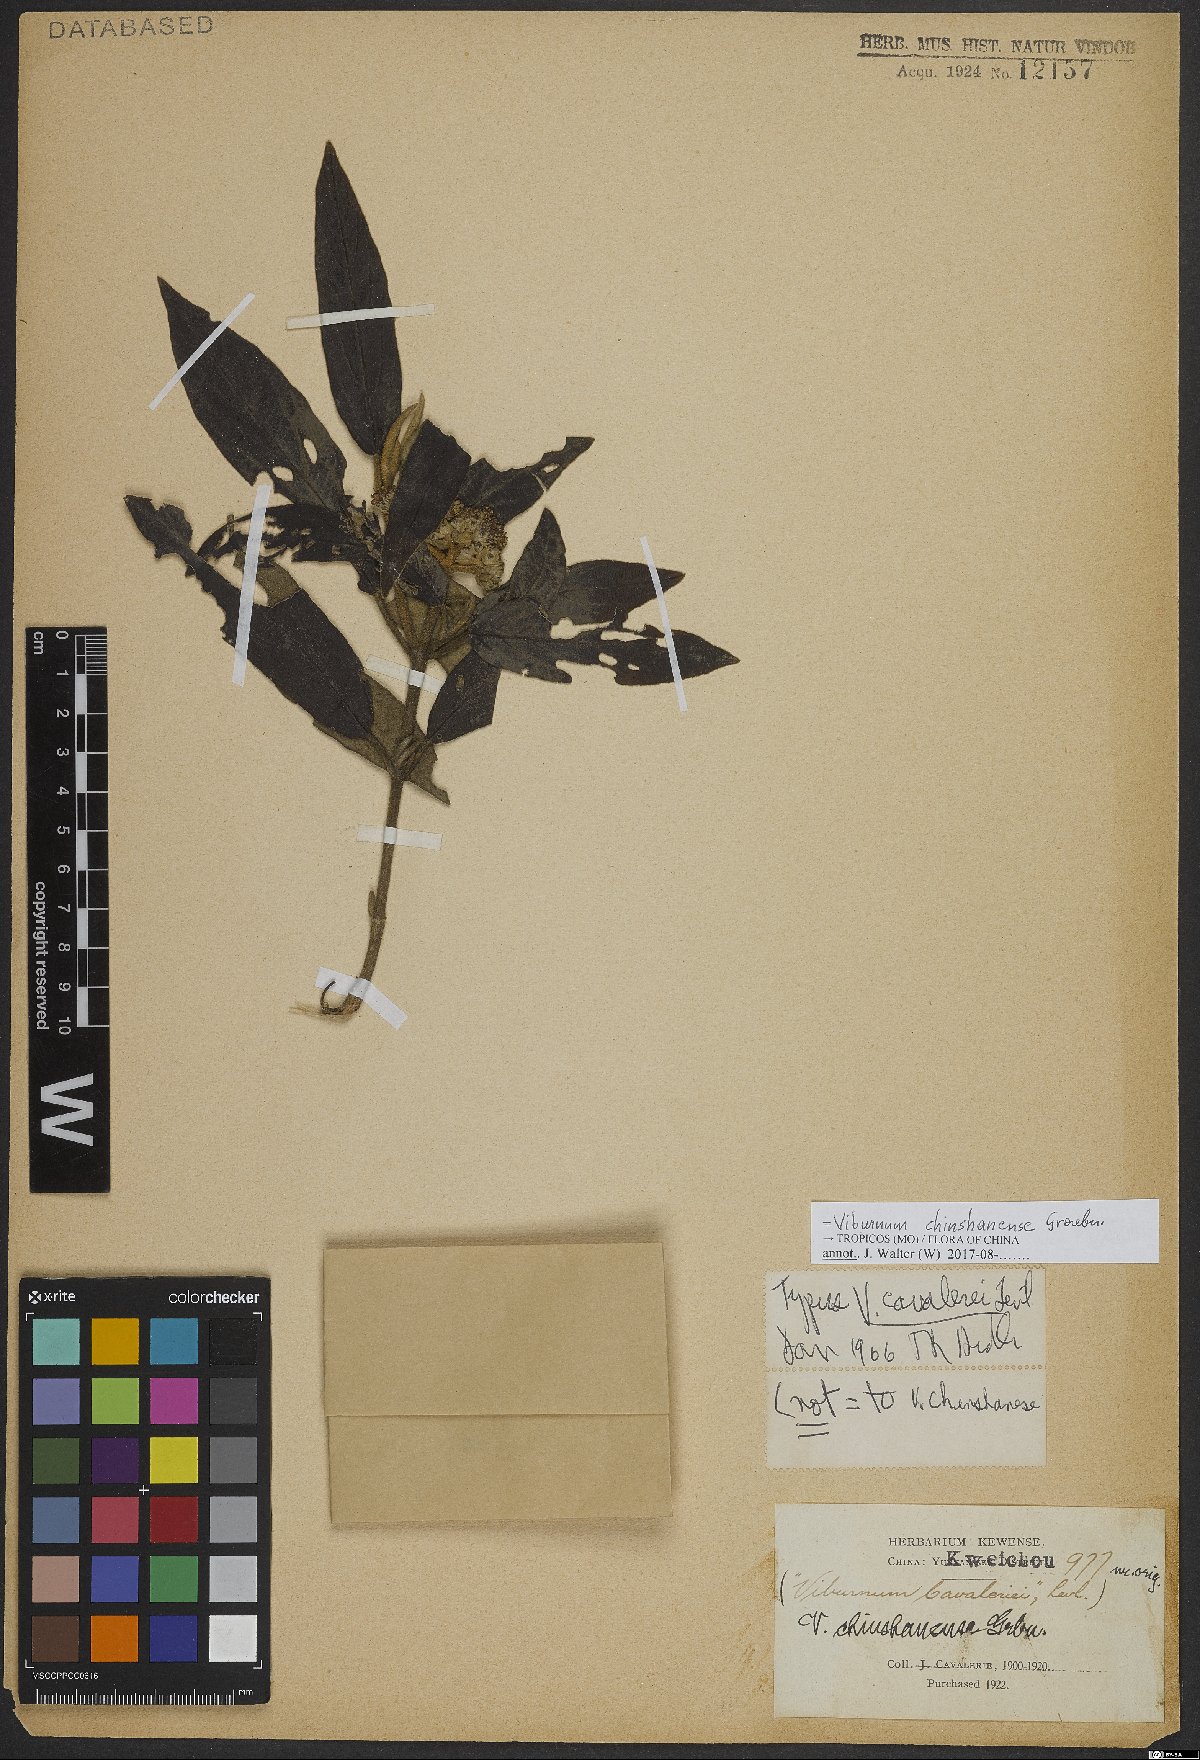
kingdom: Plantae
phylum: Tracheophyta
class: Magnoliopsida
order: Dipsacales
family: Viburnaceae
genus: Viburnum
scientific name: Viburnum chinshanense
